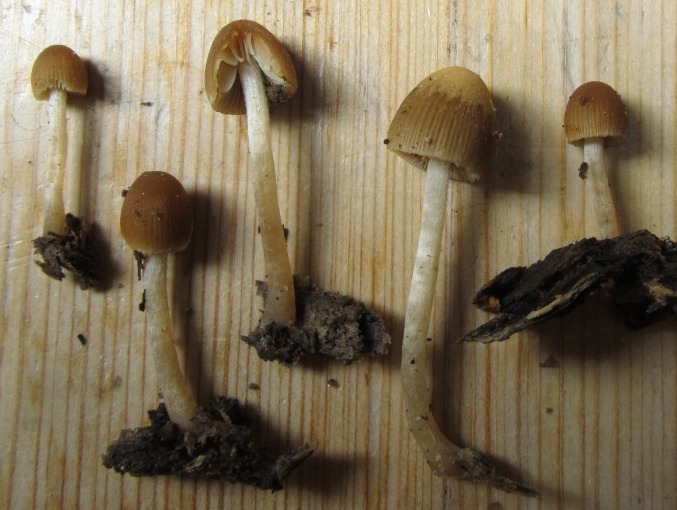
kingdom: Fungi
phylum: Basidiomycota
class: Agaricomycetes
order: Agaricales
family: Psathyrellaceae
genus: Psathyrella
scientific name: Psathyrella obtusata
